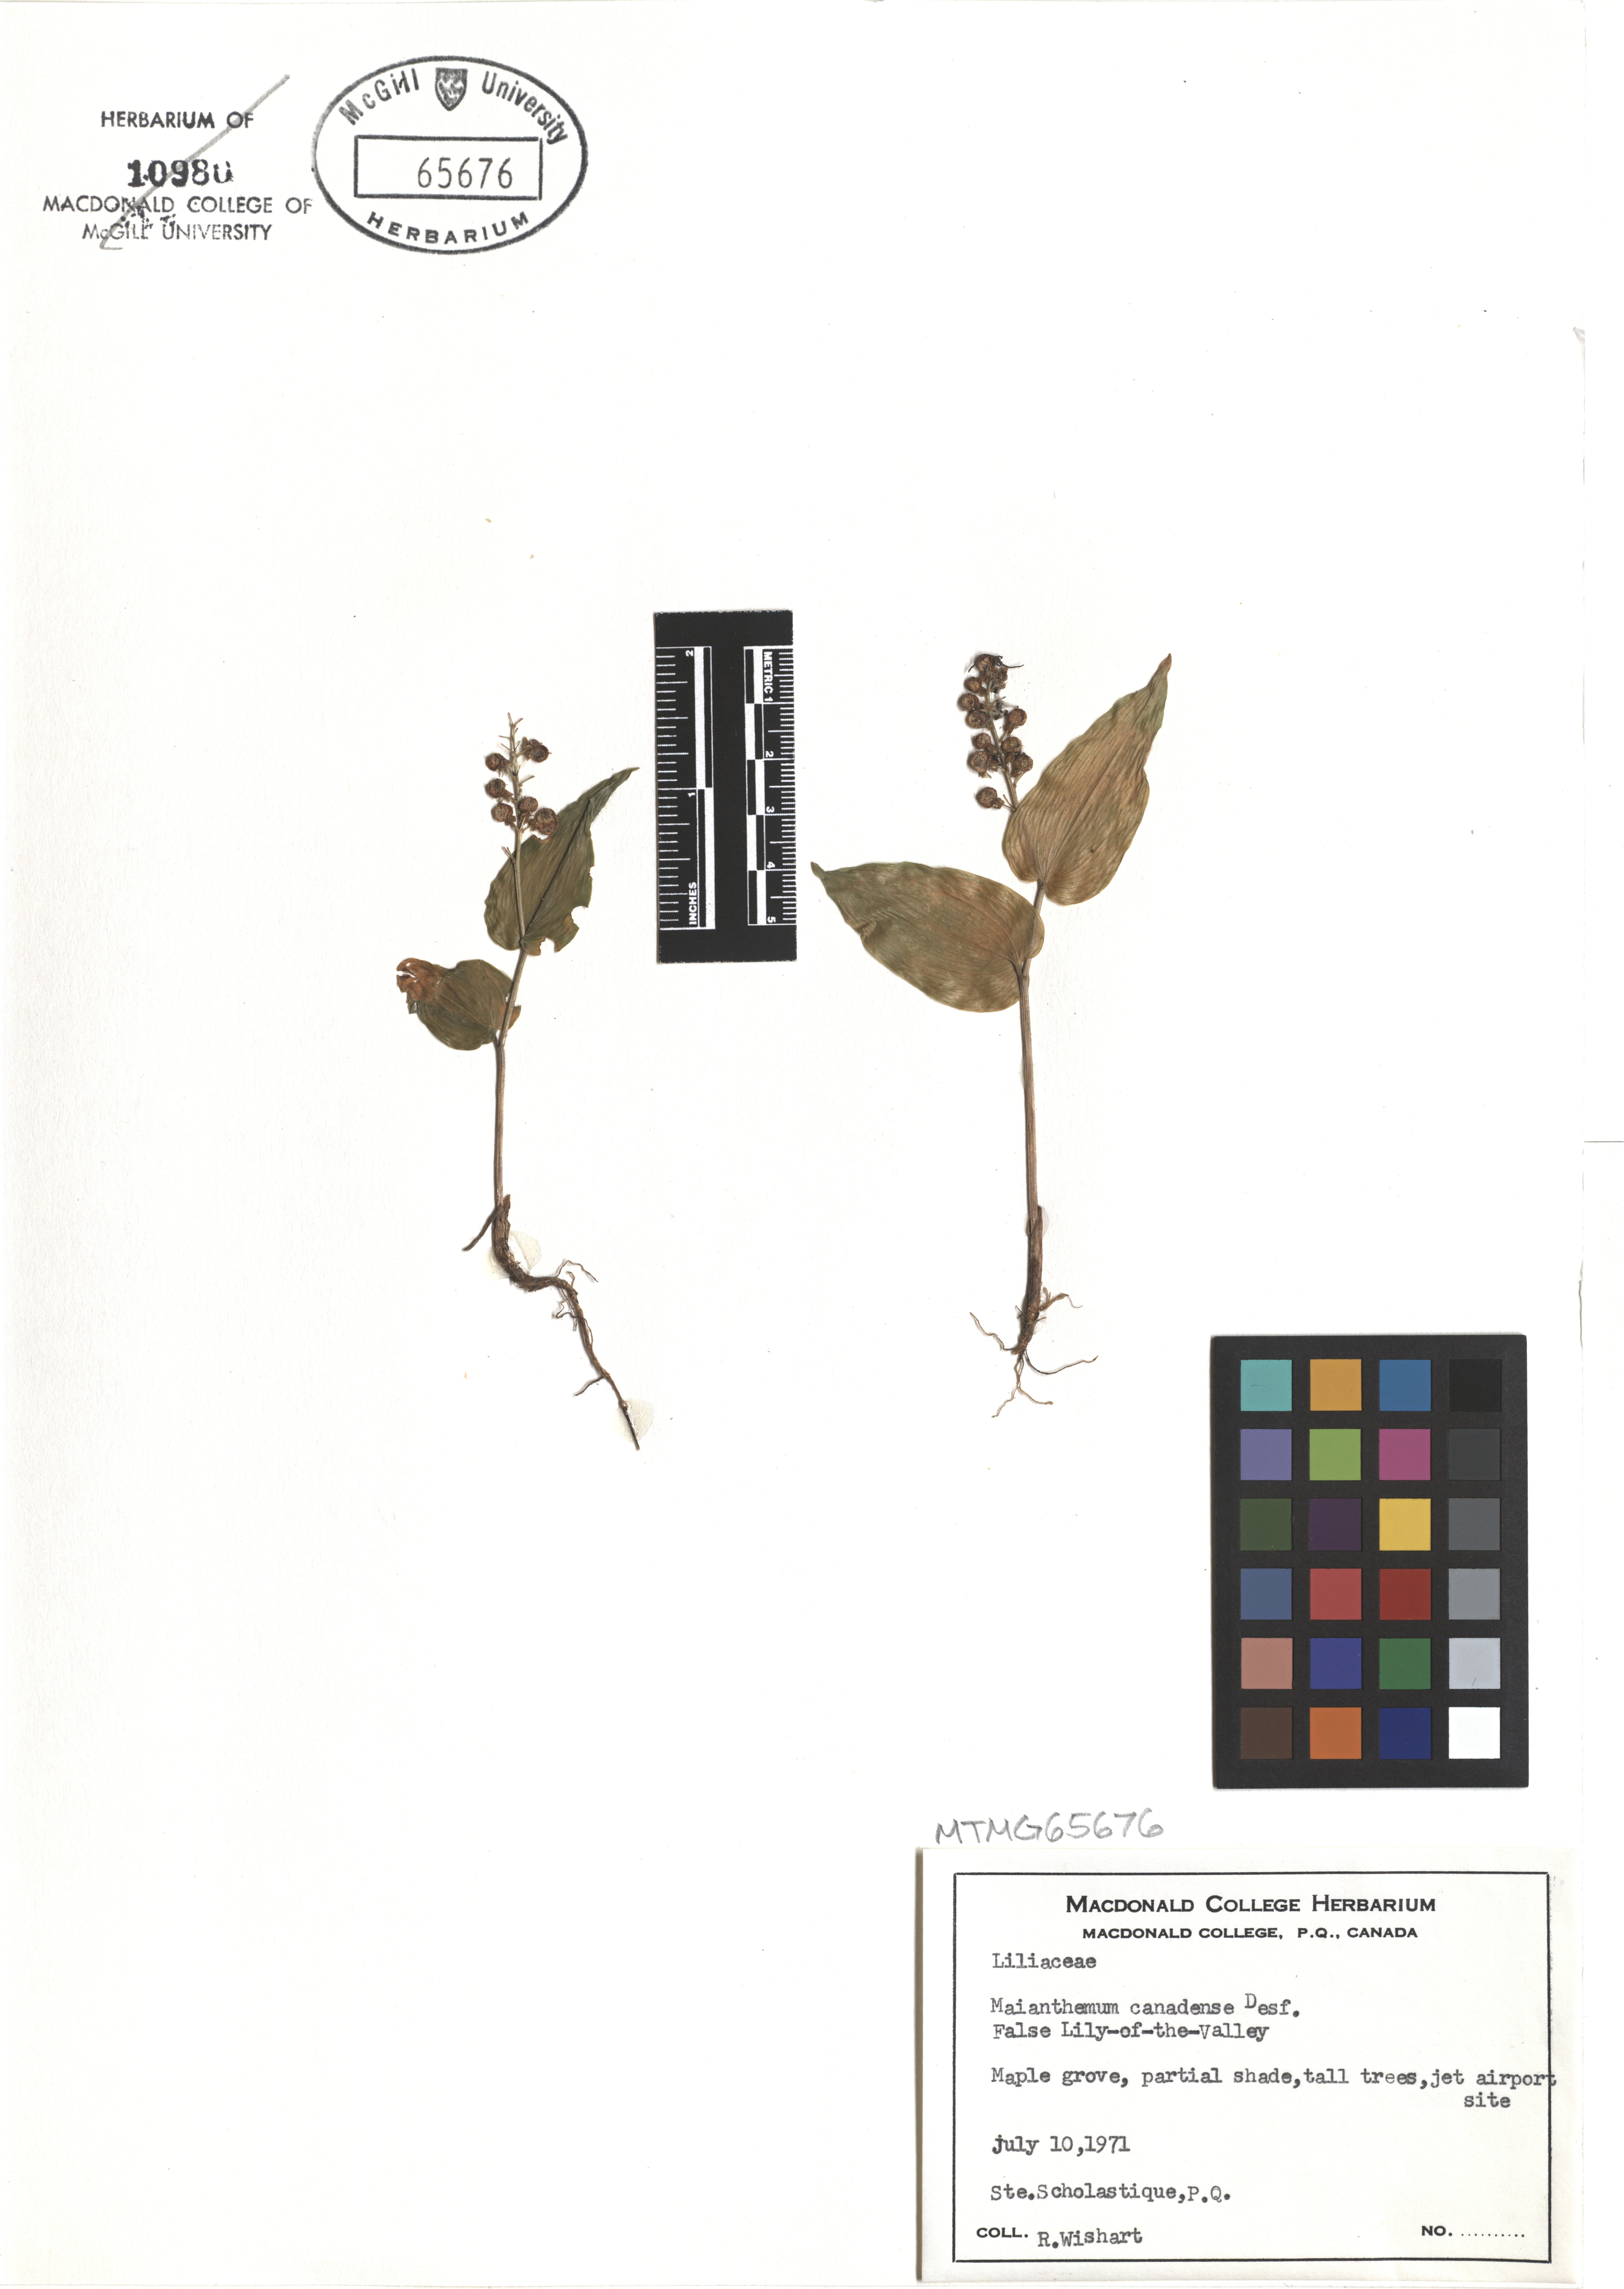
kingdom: Plantae
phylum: Tracheophyta
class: Liliopsida
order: Asparagales
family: Asparagaceae
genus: Maianthemum
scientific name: Maianthemum canadense
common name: False lily-of-the-valley
